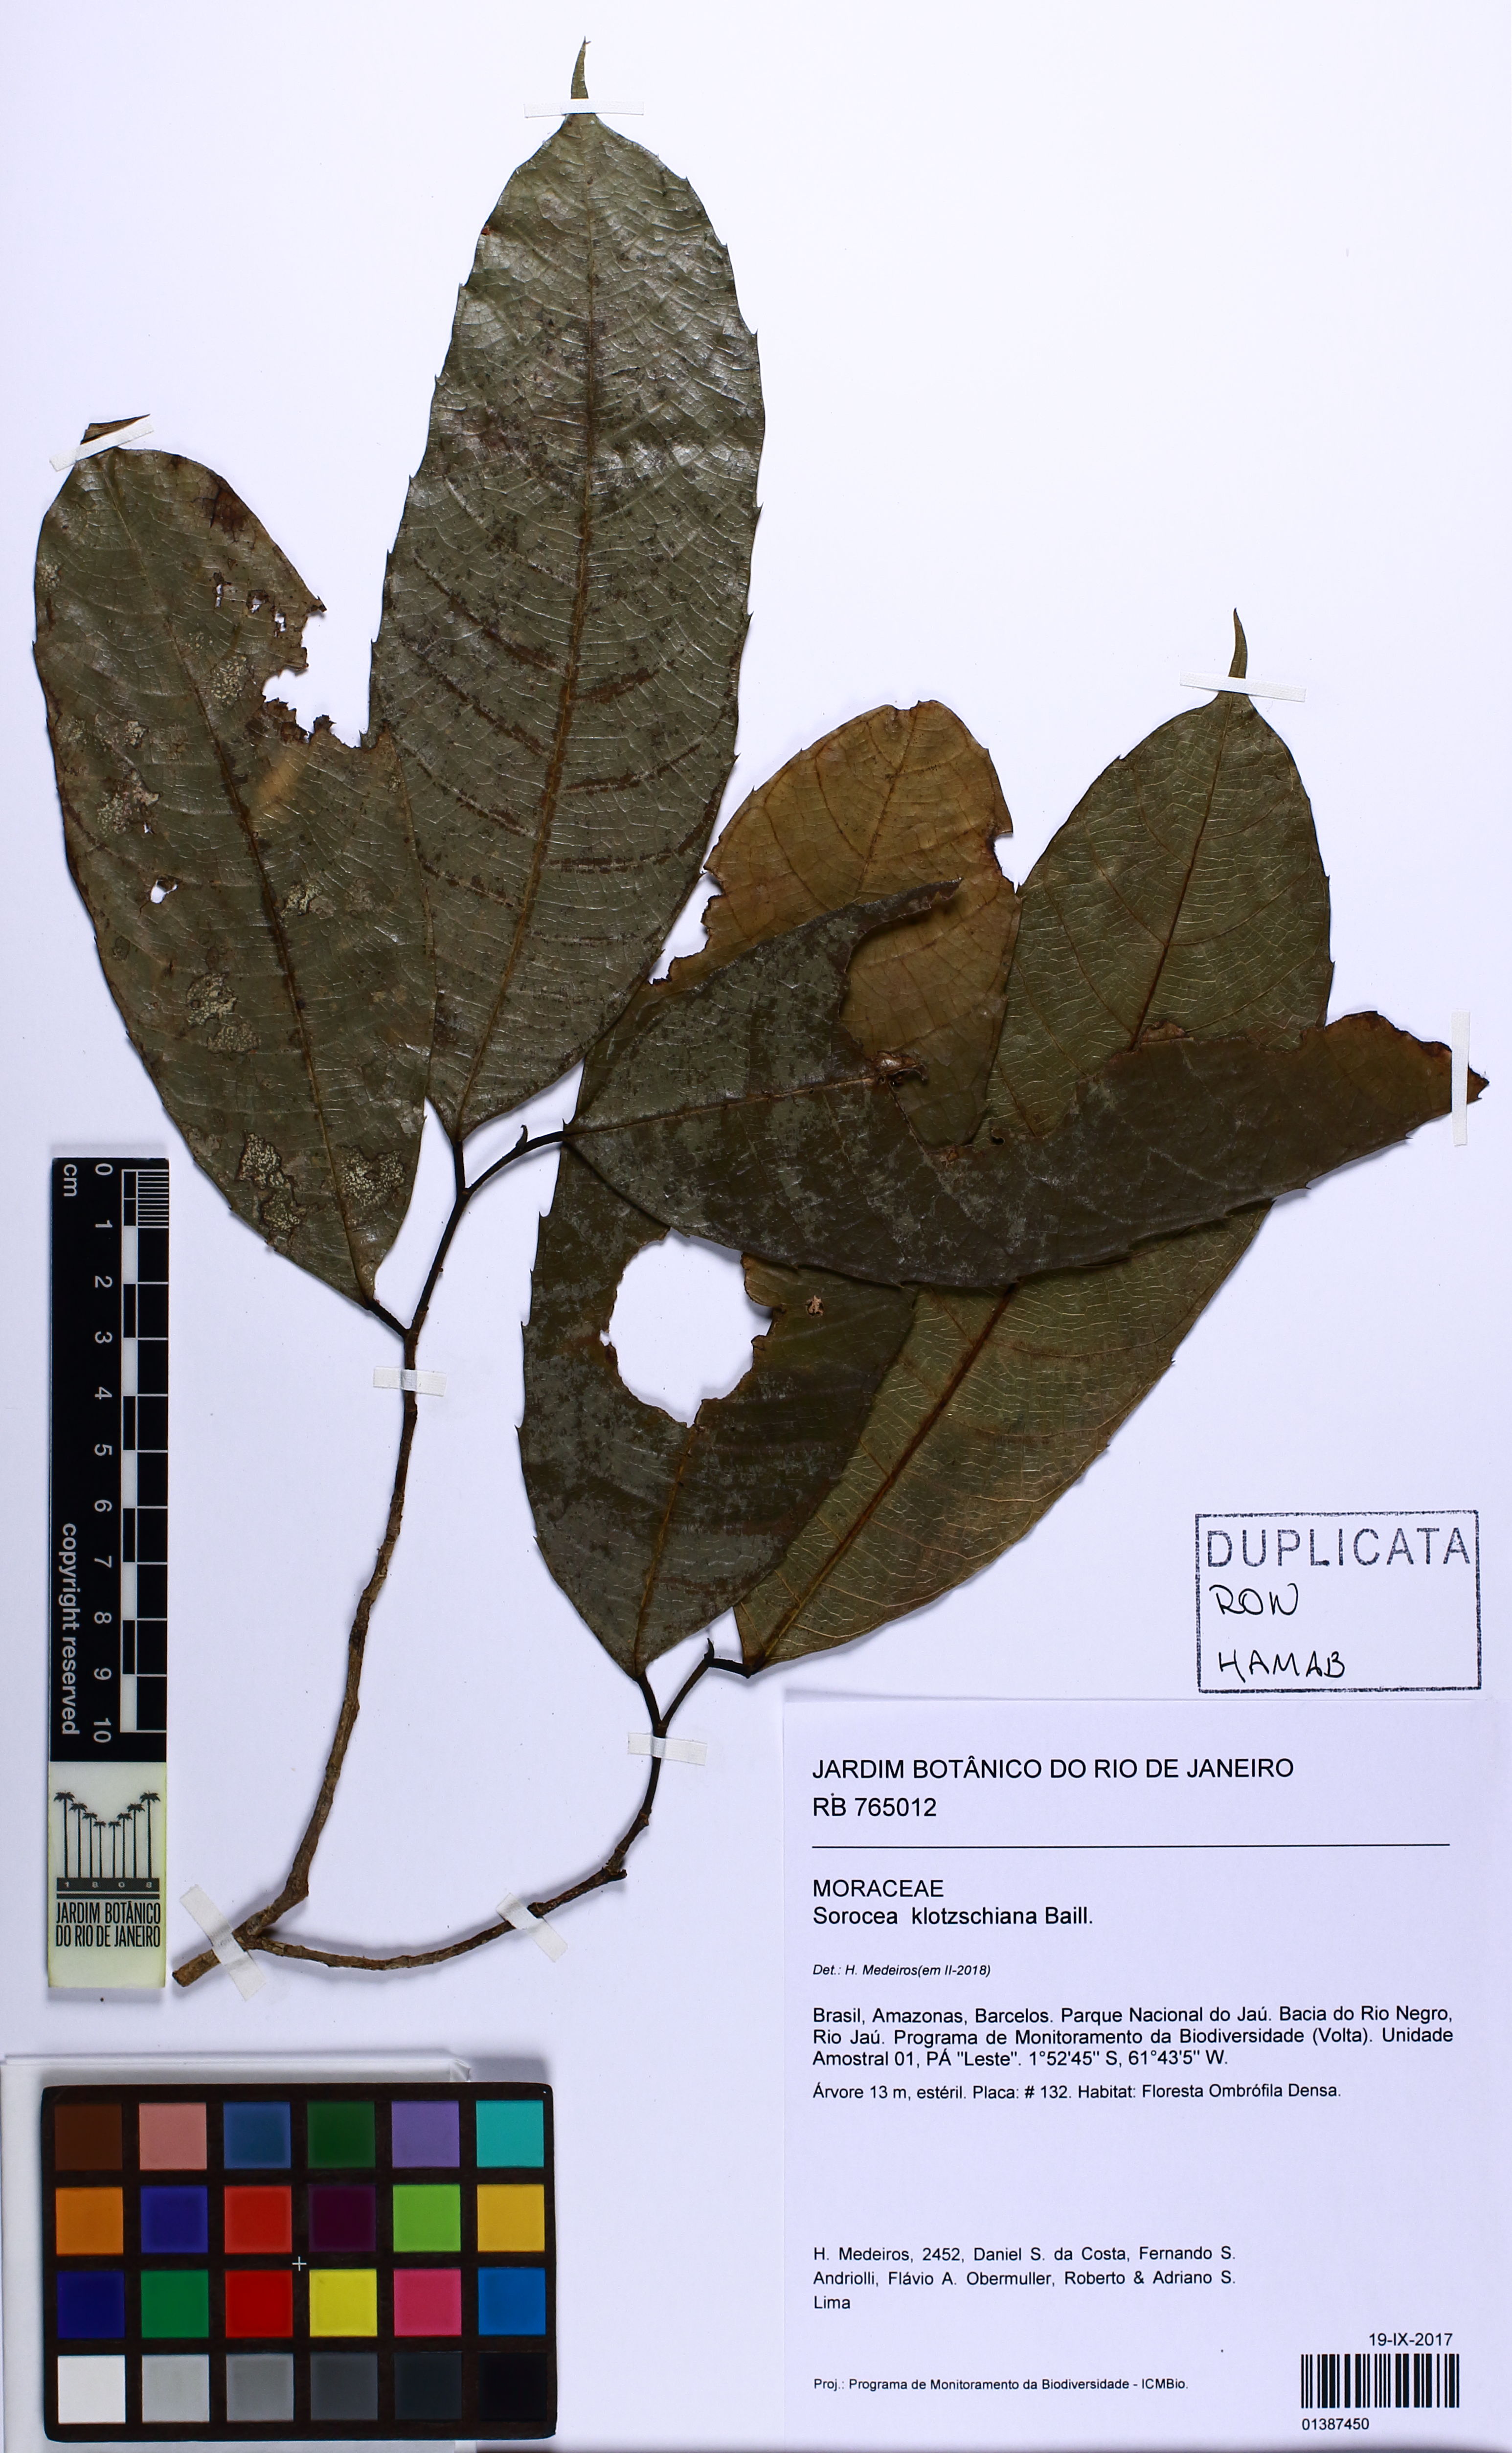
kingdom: Plantae
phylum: Tracheophyta
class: Magnoliopsida
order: Rosales
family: Moraceae
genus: Sorocea
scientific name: Sorocea guilleminiana
